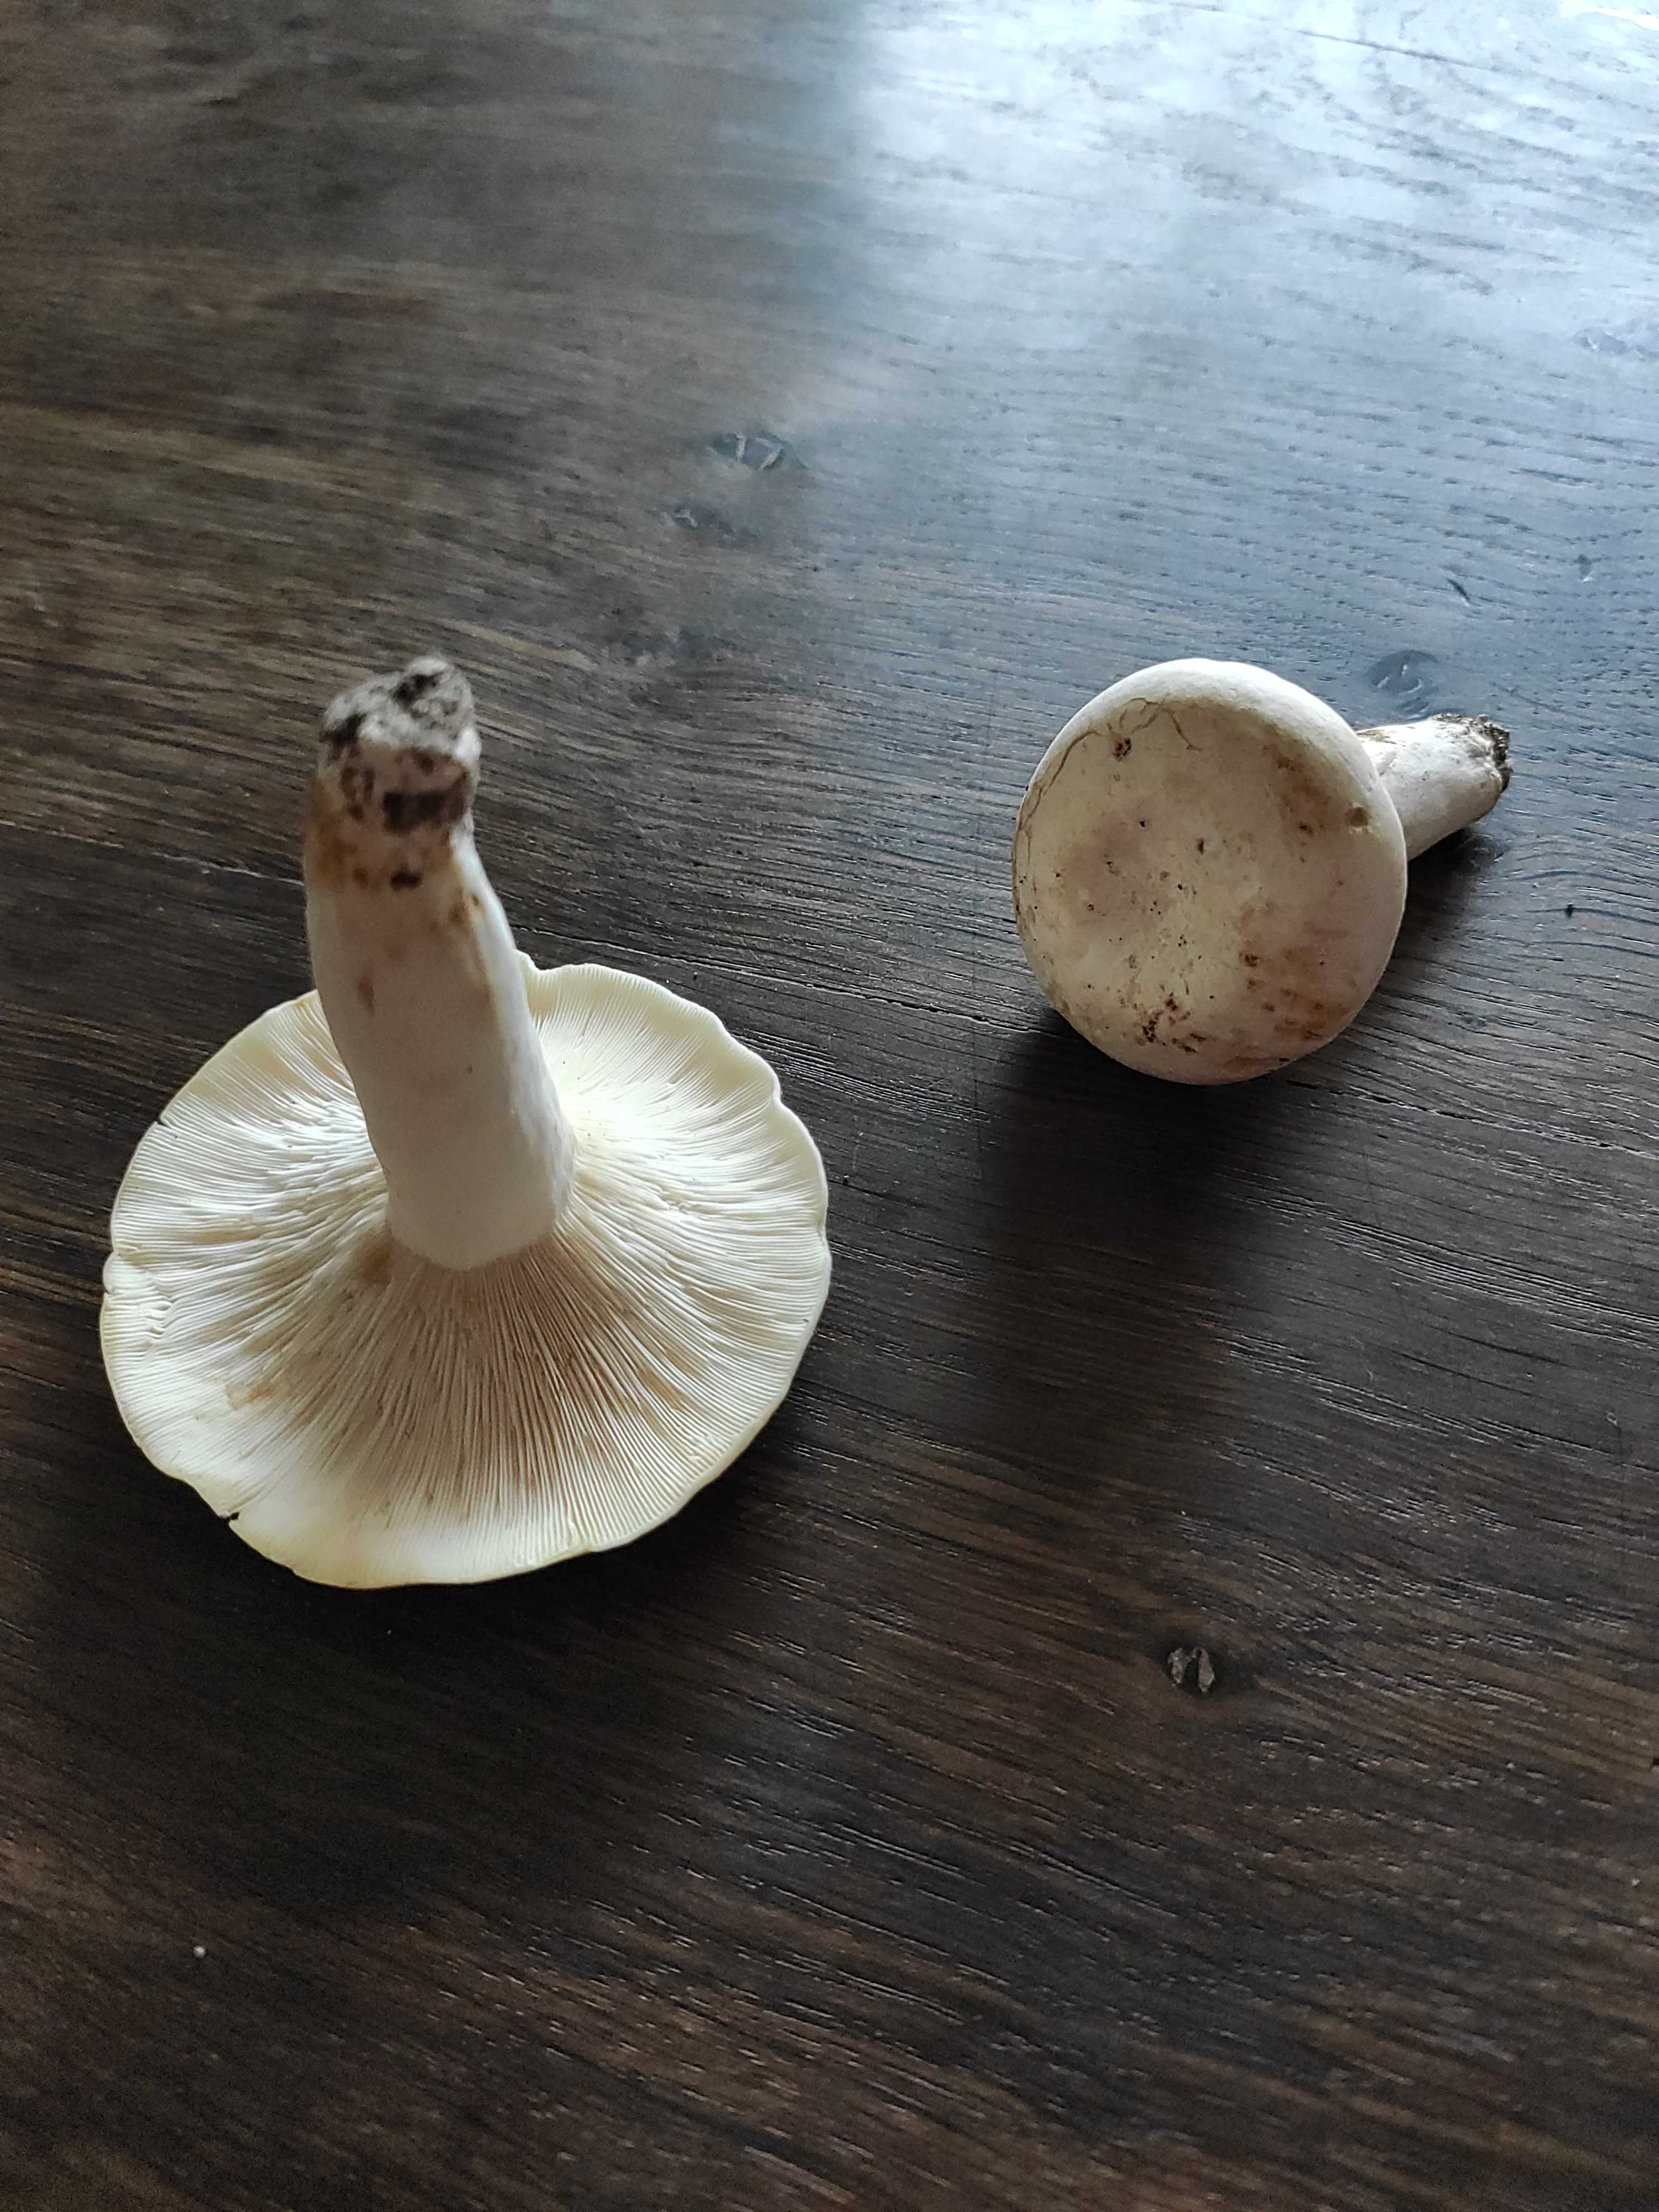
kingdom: Fungi
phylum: Basidiomycota
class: Agaricomycetes
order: Russulales
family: Russulaceae
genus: Lactifluus
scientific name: Lactifluus
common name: mælkehat
